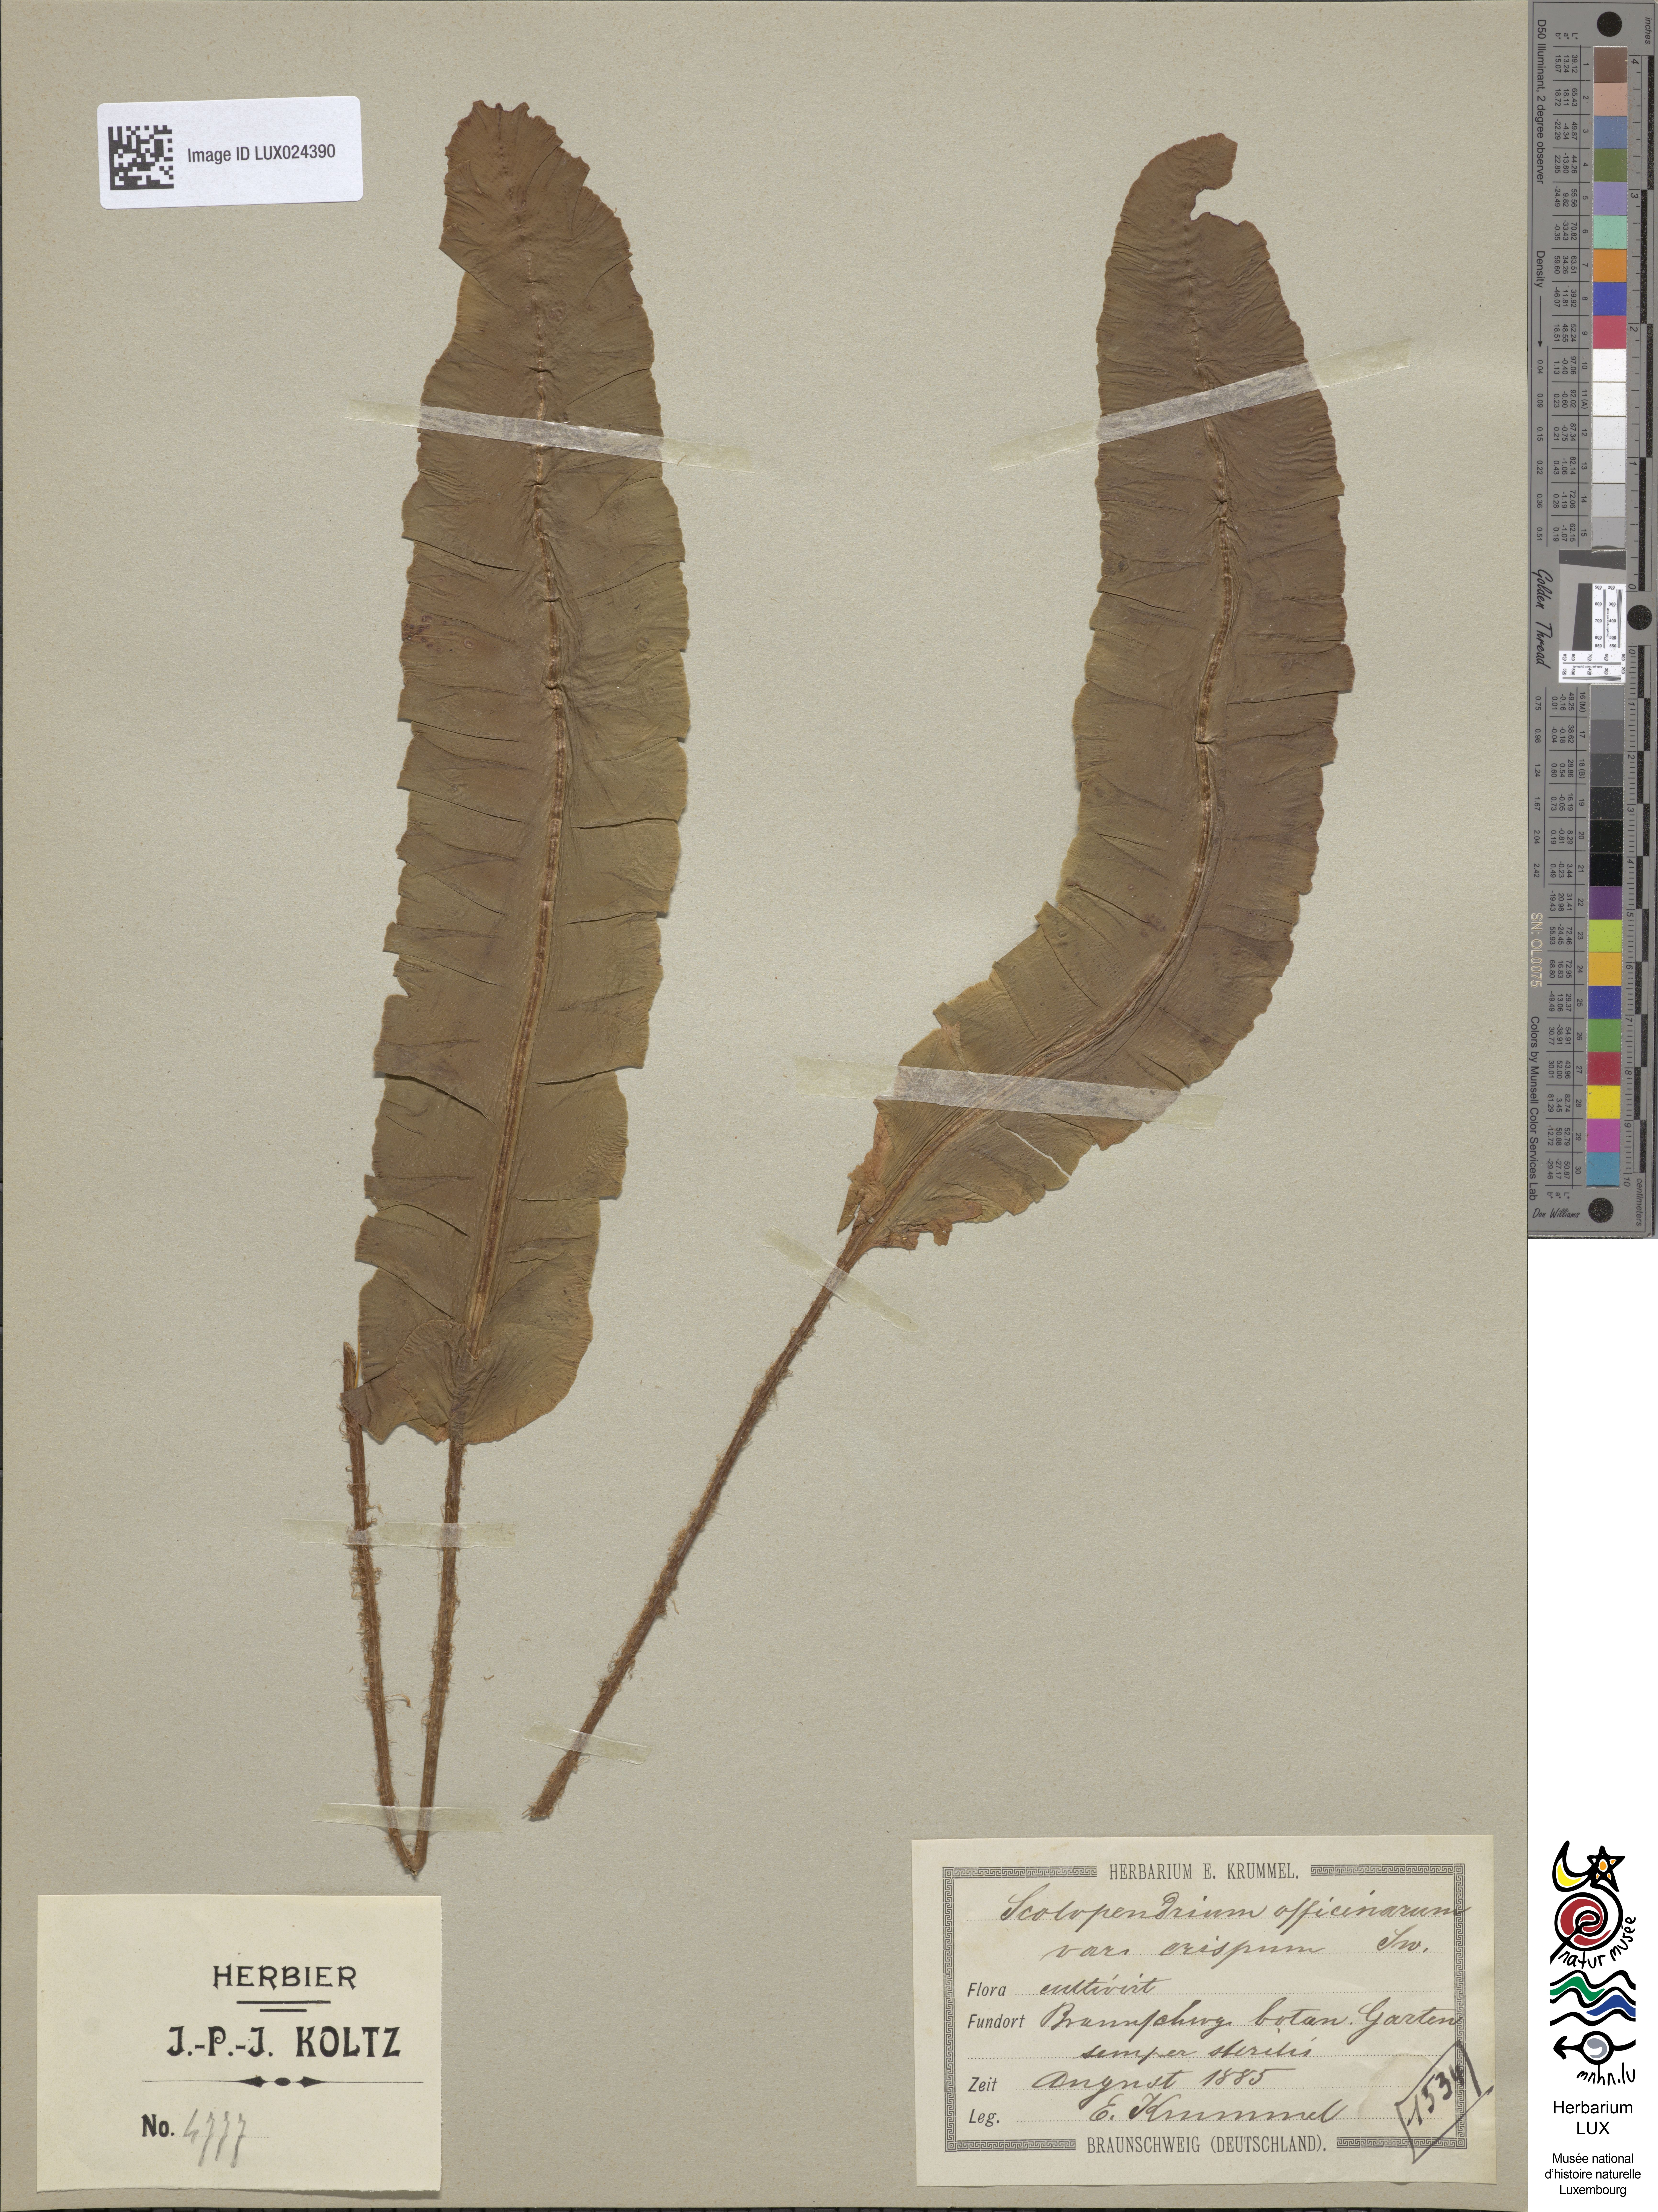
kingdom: Plantae
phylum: Tracheophyta
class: Polypodiopsida
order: Polypodiales
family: Aspleniaceae
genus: Asplenium
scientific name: Asplenium scolopendrium
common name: Hart's-tongue fern
